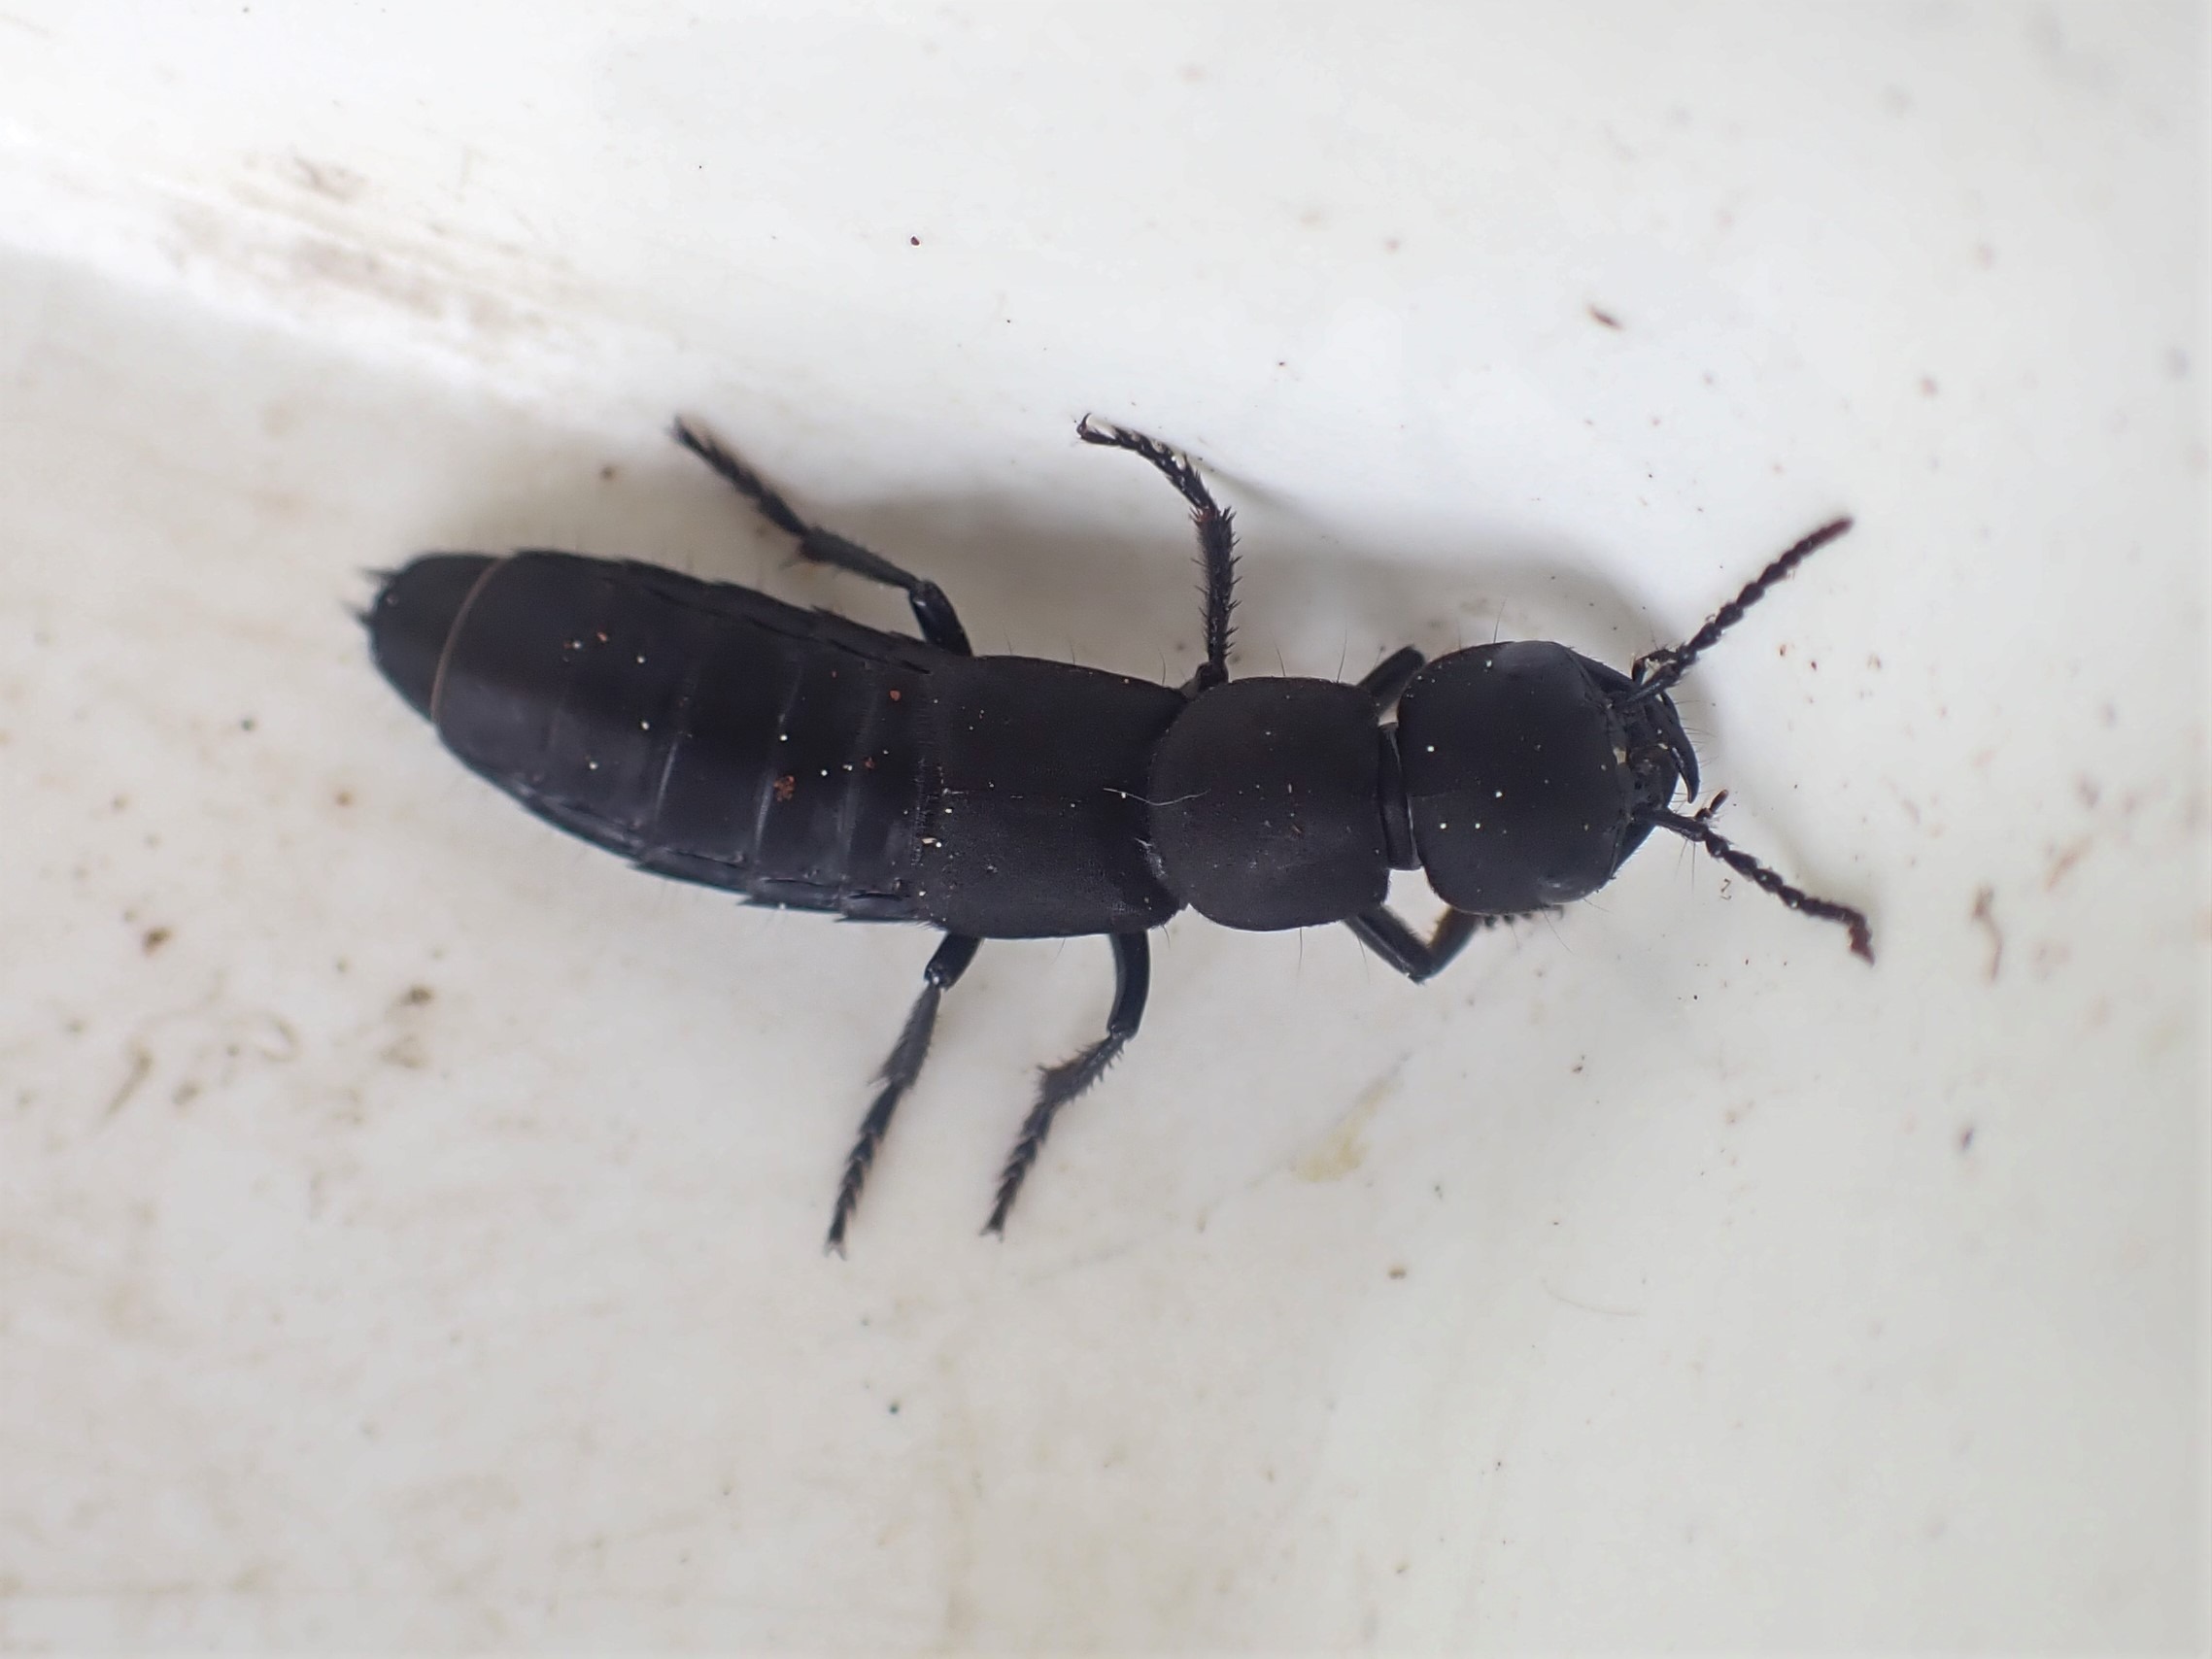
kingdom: Animalia
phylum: Arthropoda
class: Insecta
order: Coleoptera
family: Staphylinidae
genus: Ocypus
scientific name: Ocypus olens
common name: Stor rovbille
